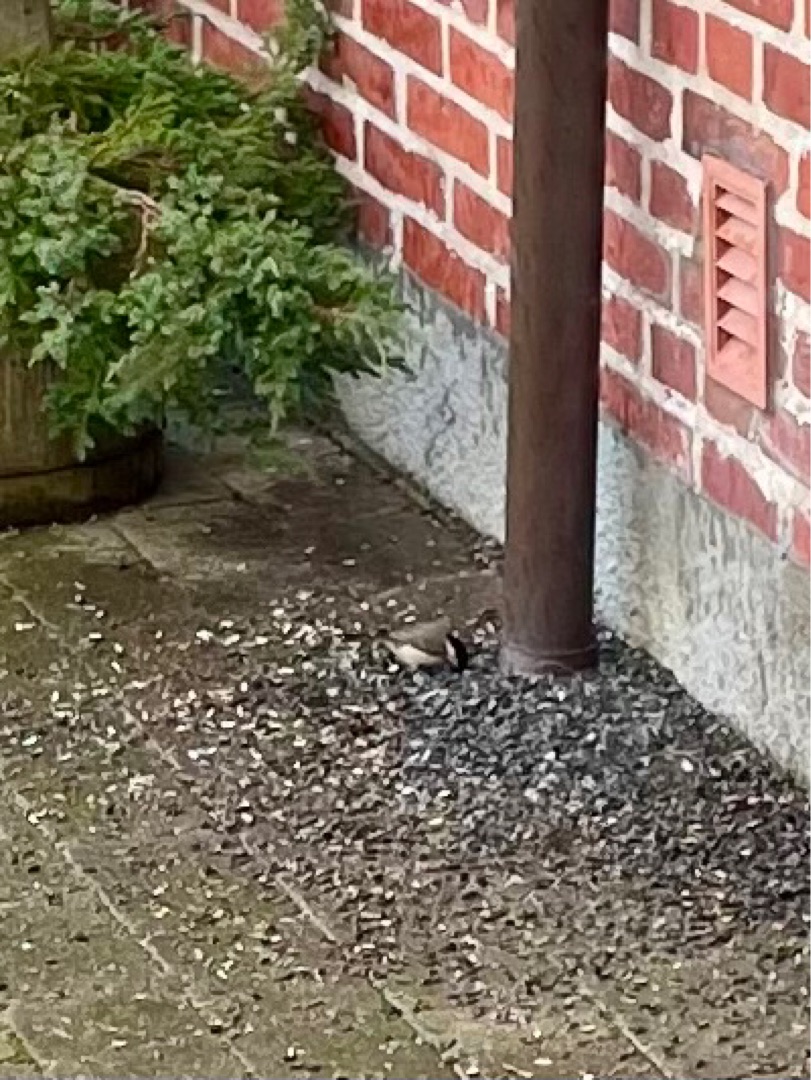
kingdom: Animalia
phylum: Chordata
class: Aves
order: Passeriformes
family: Paridae
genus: Poecile
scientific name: Poecile palustris
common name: Sumpmejse
